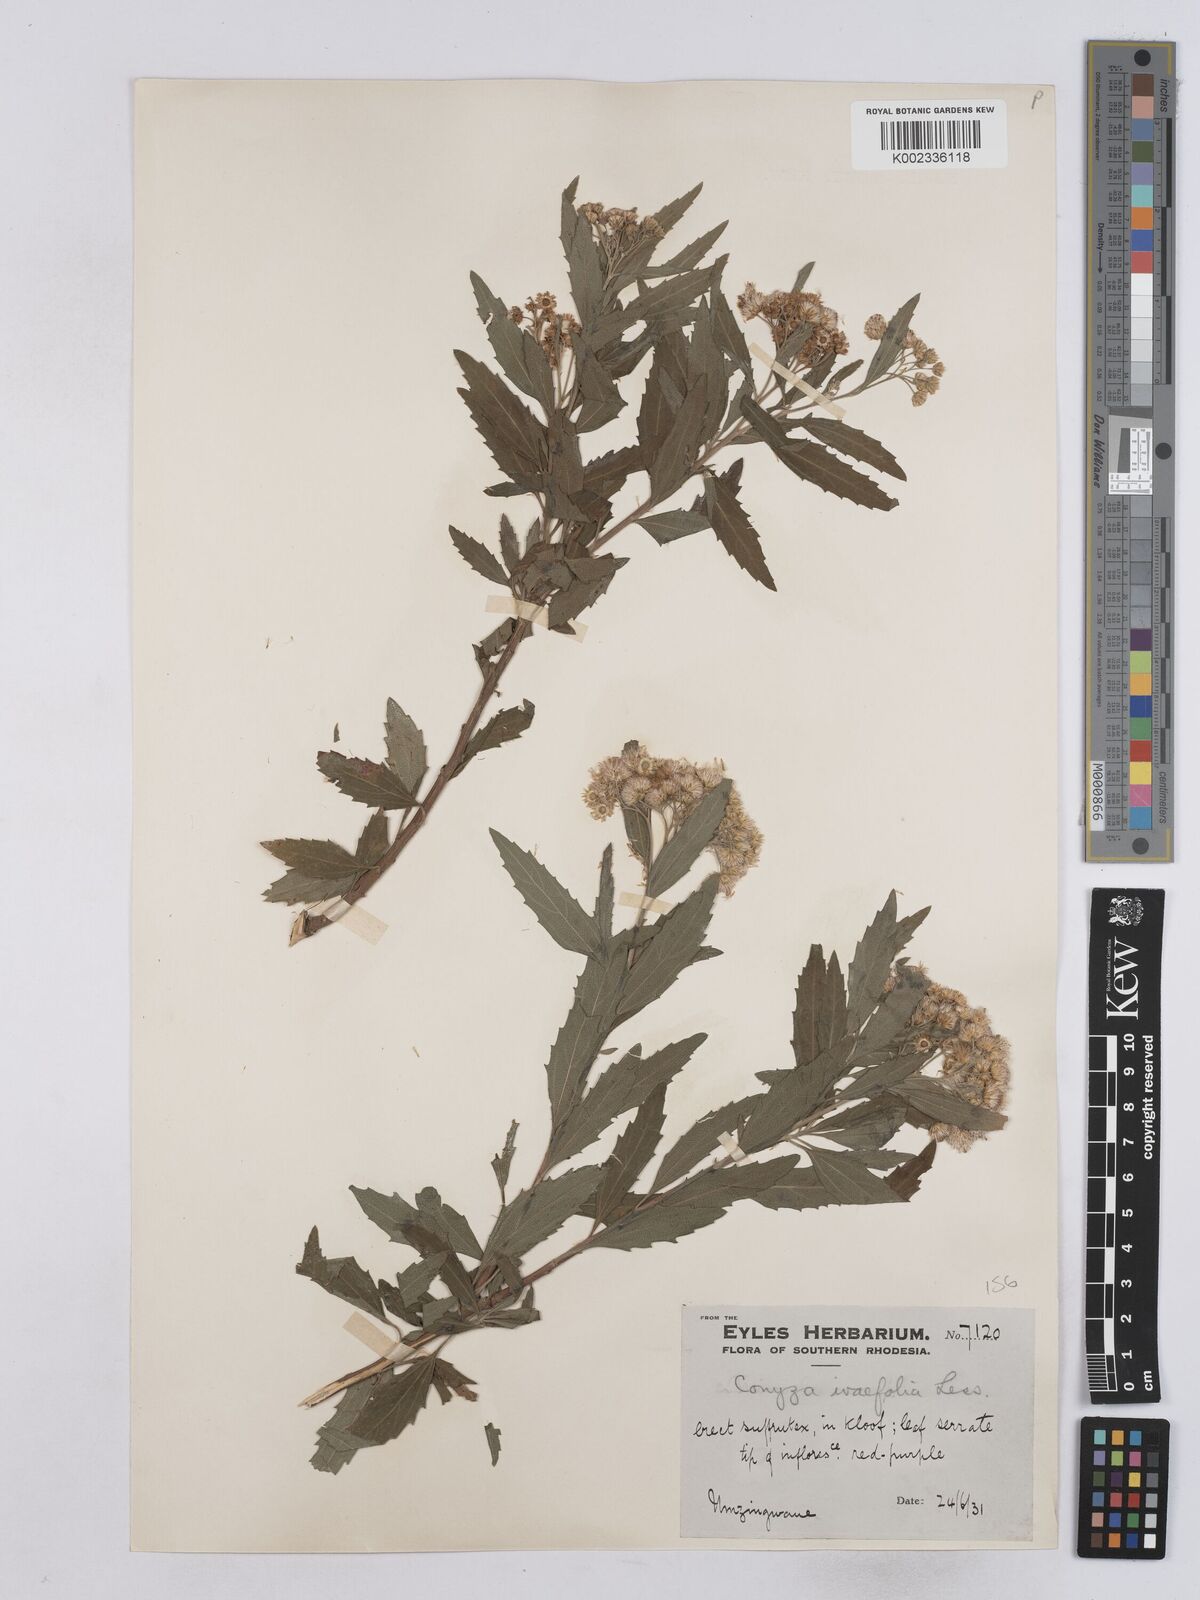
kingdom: Plantae
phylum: Tracheophyta
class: Magnoliopsida
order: Asterales
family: Asteraceae
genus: Nidorella
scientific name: Nidorella ivifolia
